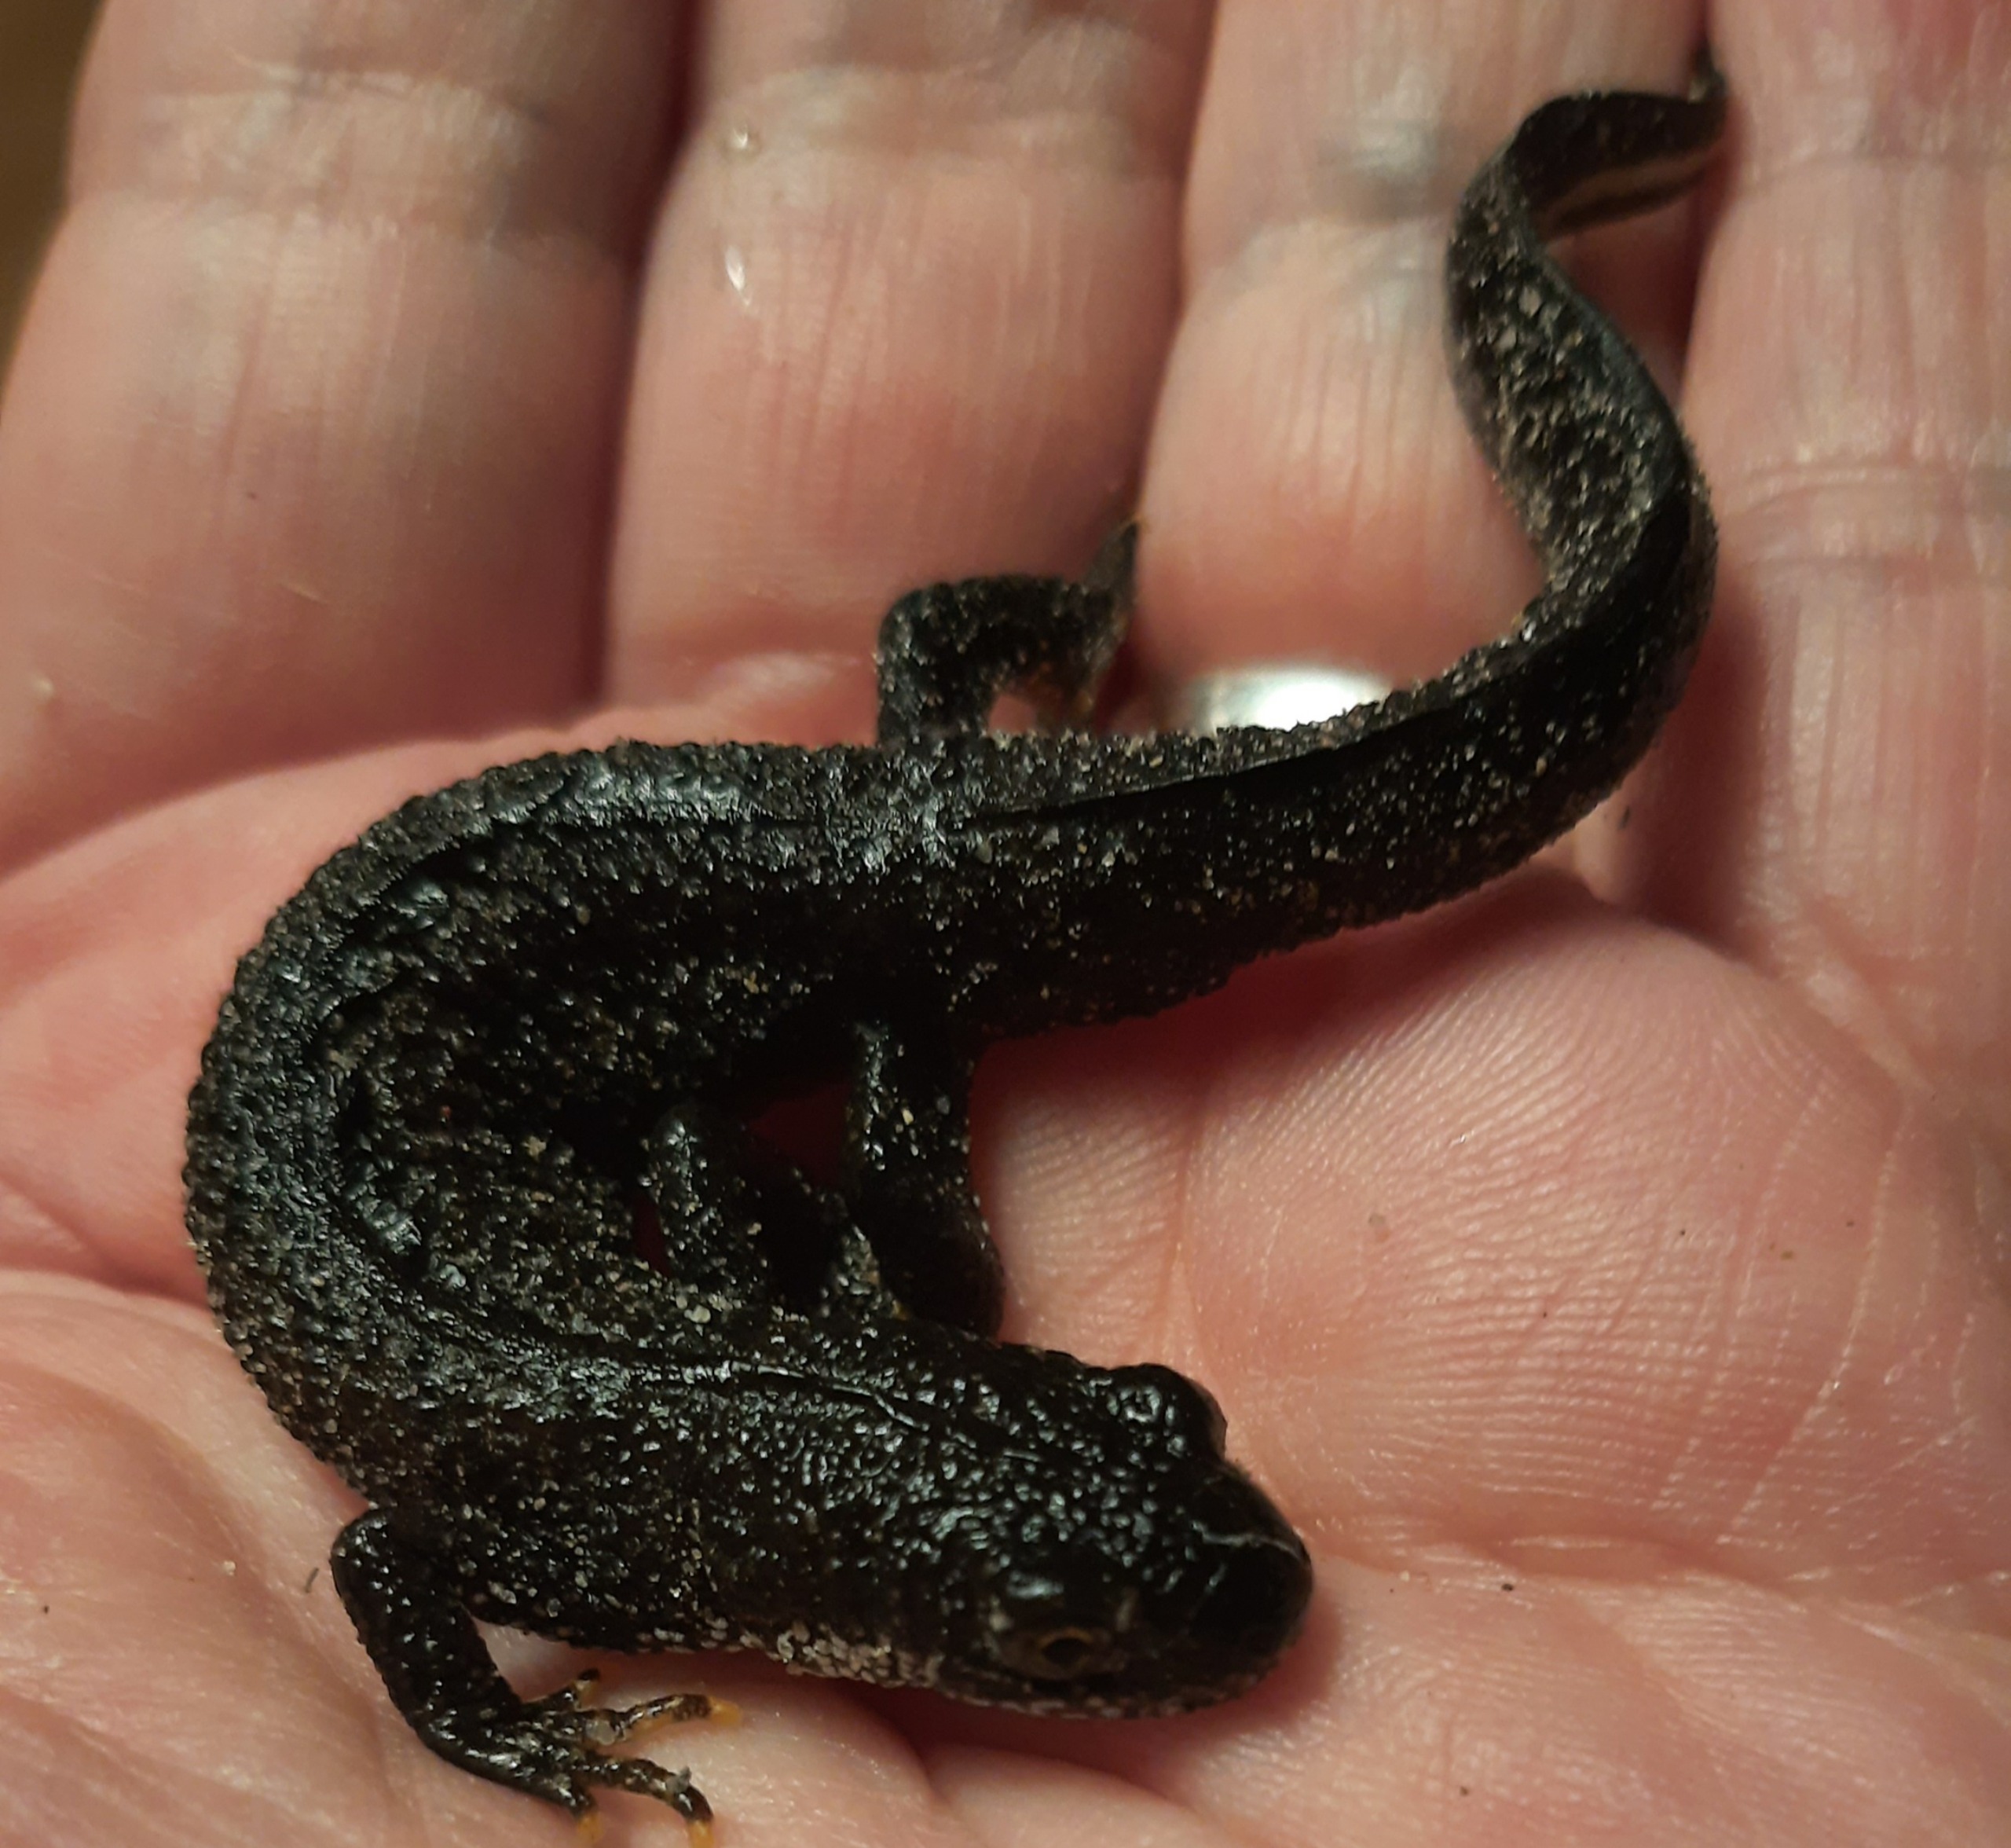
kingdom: Animalia
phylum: Chordata
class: Amphibia
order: Caudata
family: Salamandridae
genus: Triturus
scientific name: Triturus cristatus
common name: Stor vandsalamander
